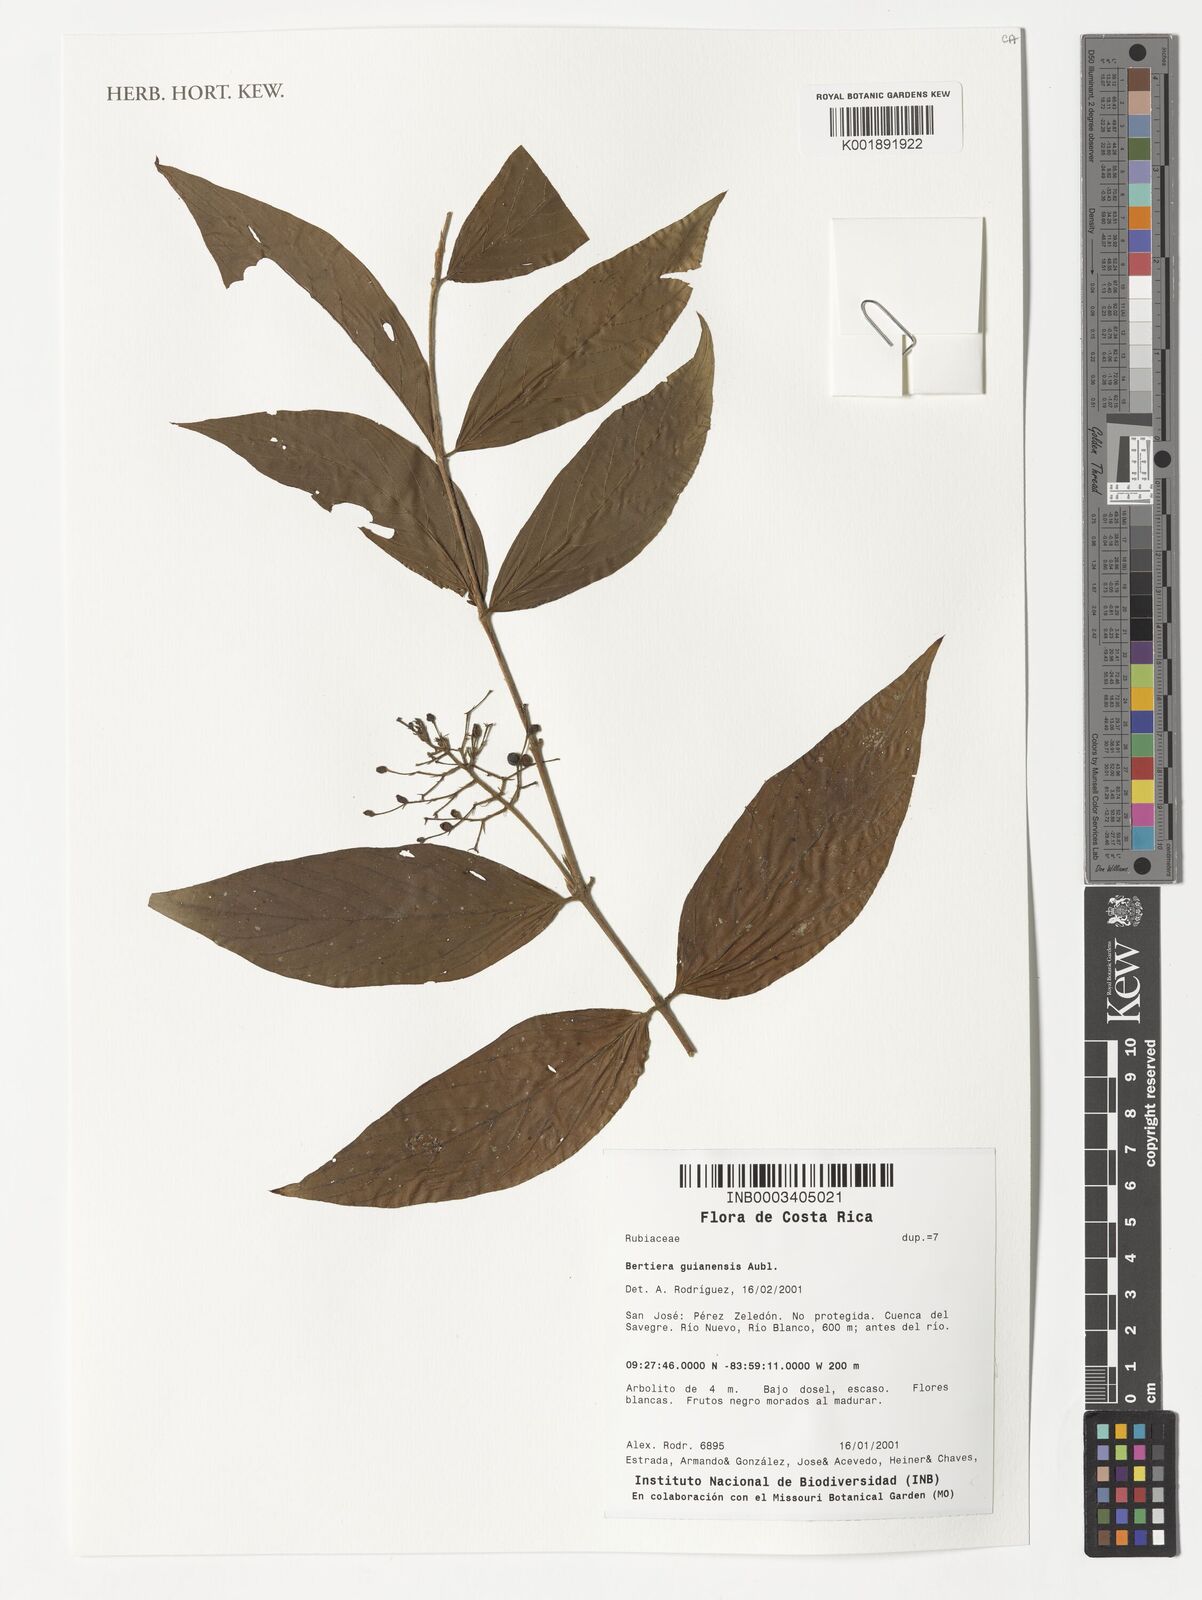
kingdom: Plantae
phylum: Tracheophyta
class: Magnoliopsida
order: Gentianales
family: Rubiaceae
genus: Bertiera
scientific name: Bertiera guianensis
